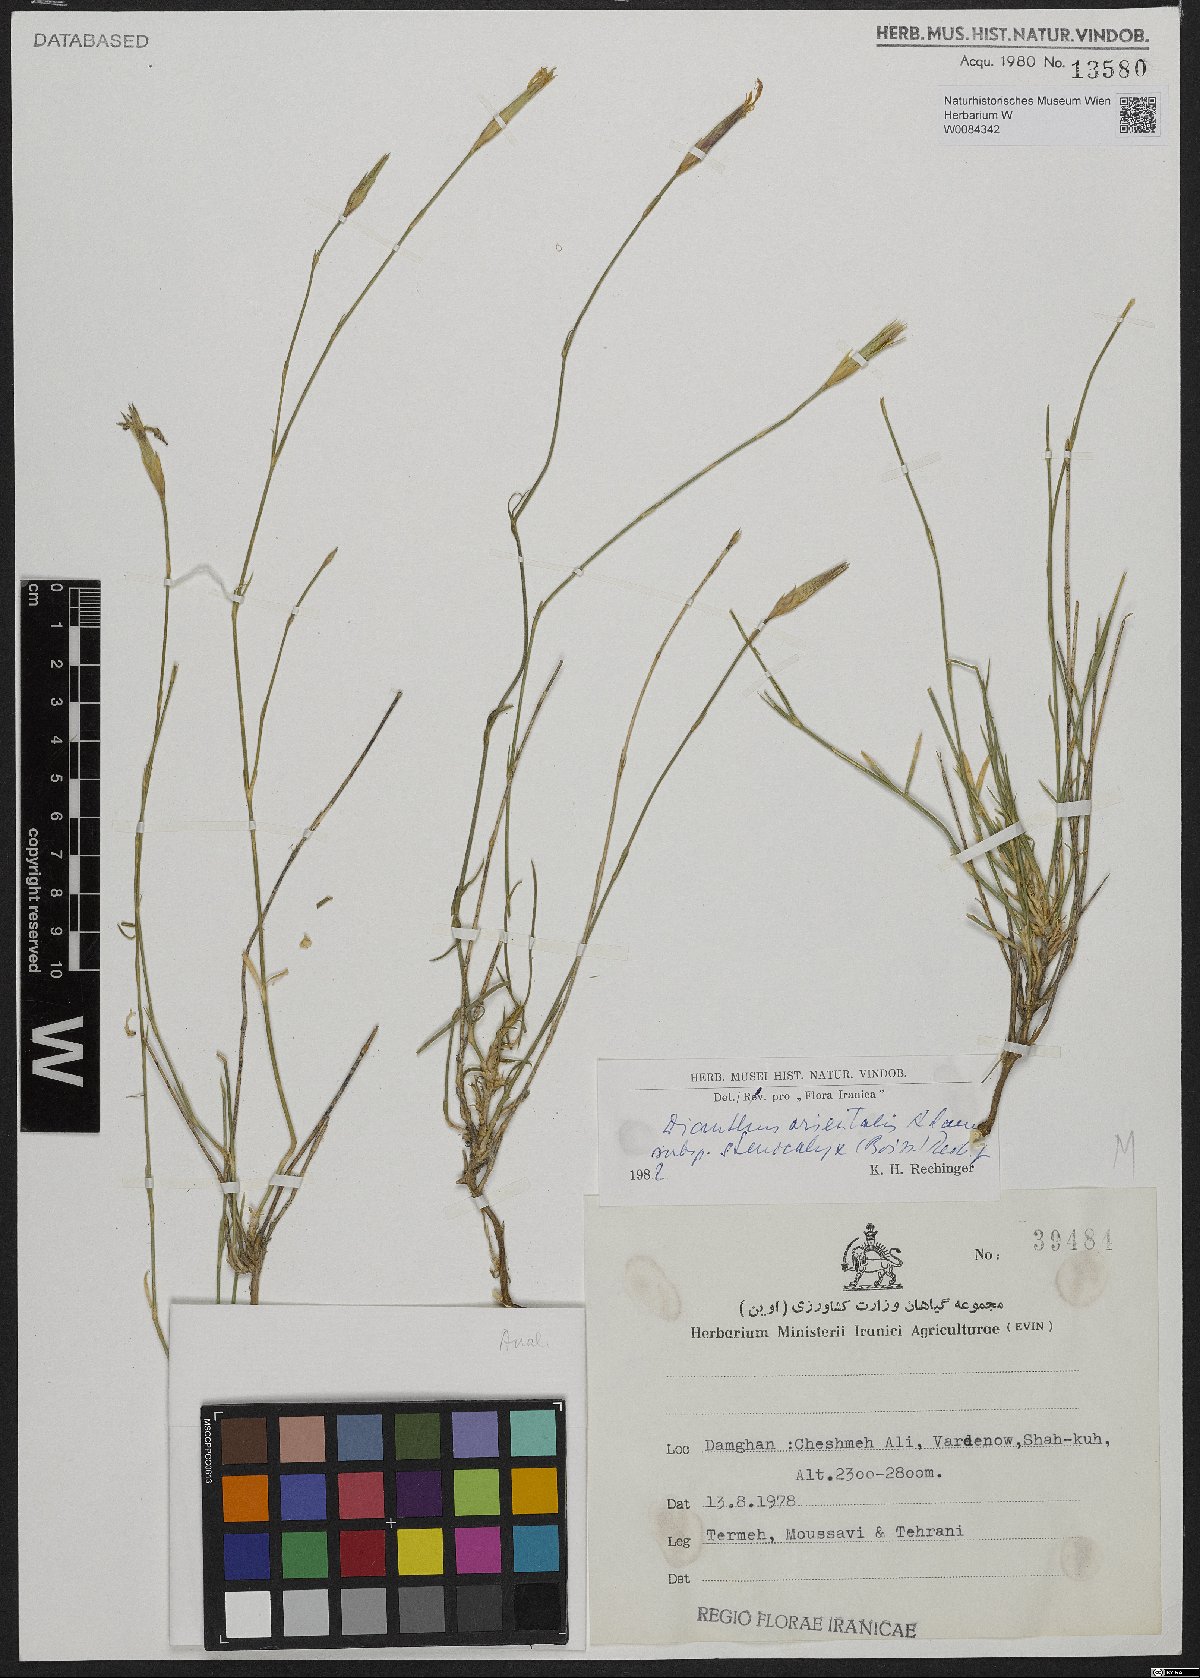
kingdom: Plantae
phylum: Tracheophyta
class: Magnoliopsida
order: Caryophyllales
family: Caryophyllaceae
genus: Dianthus
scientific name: Dianthus orientalis
